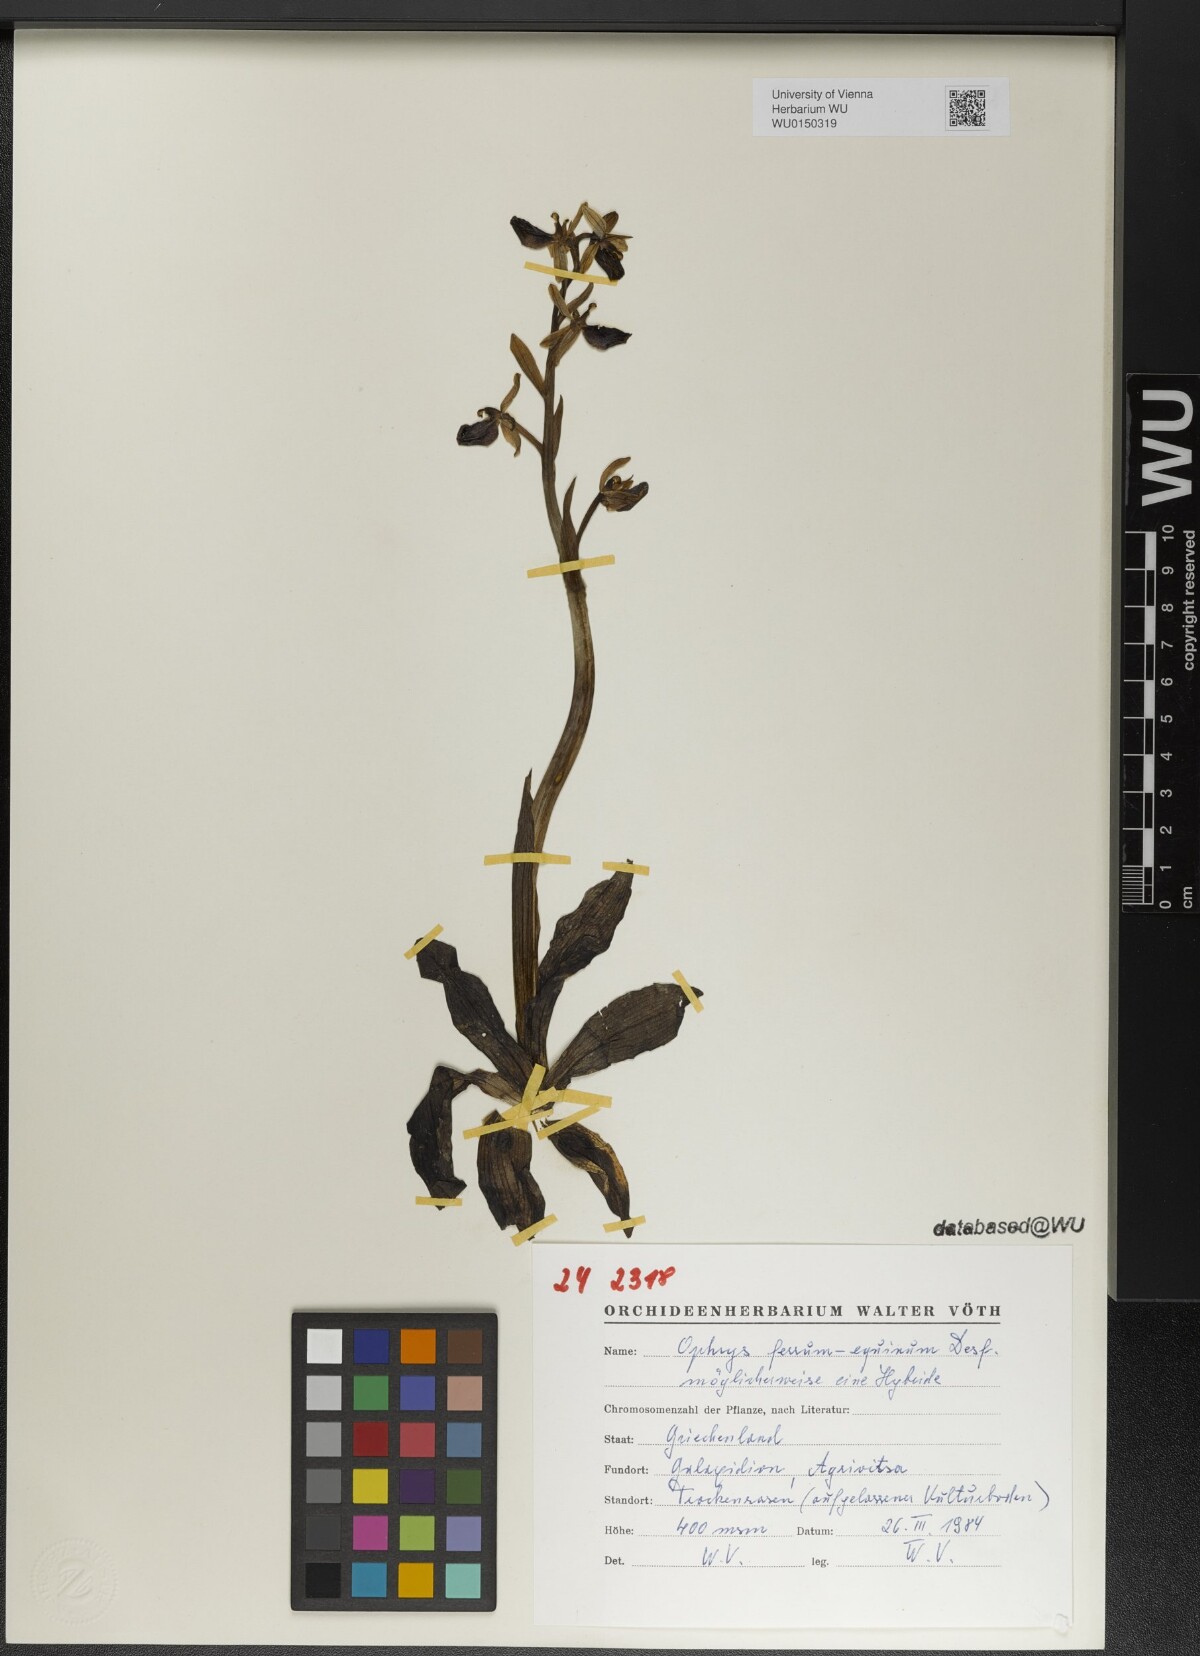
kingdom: Plantae
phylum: Tracheophyta
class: Liliopsida
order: Asparagales
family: Orchidaceae
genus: Ophrys
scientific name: Ophrys ferrum-equinum
